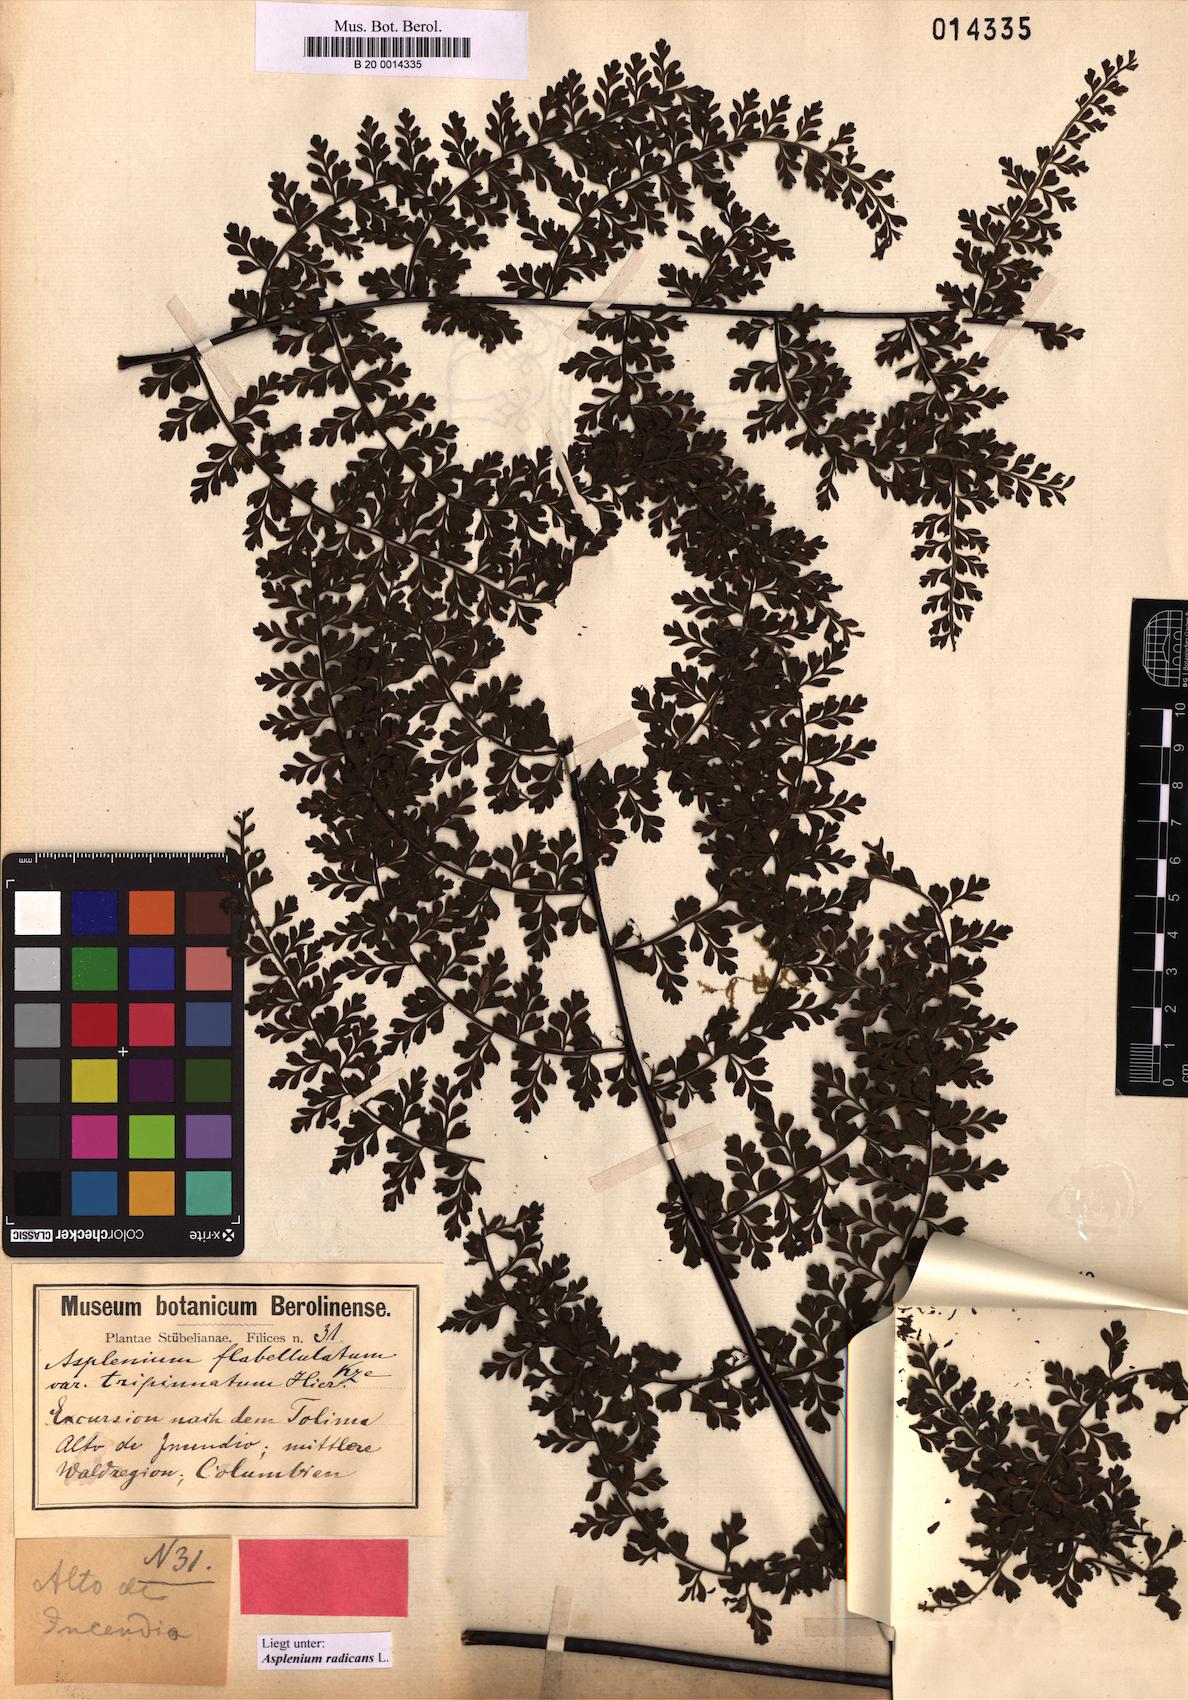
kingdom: Plantae
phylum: Tracheophyta
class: Polypodiopsida
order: Polypodiales
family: Aspleniaceae
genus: Asplenium
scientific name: Asplenium radicans
